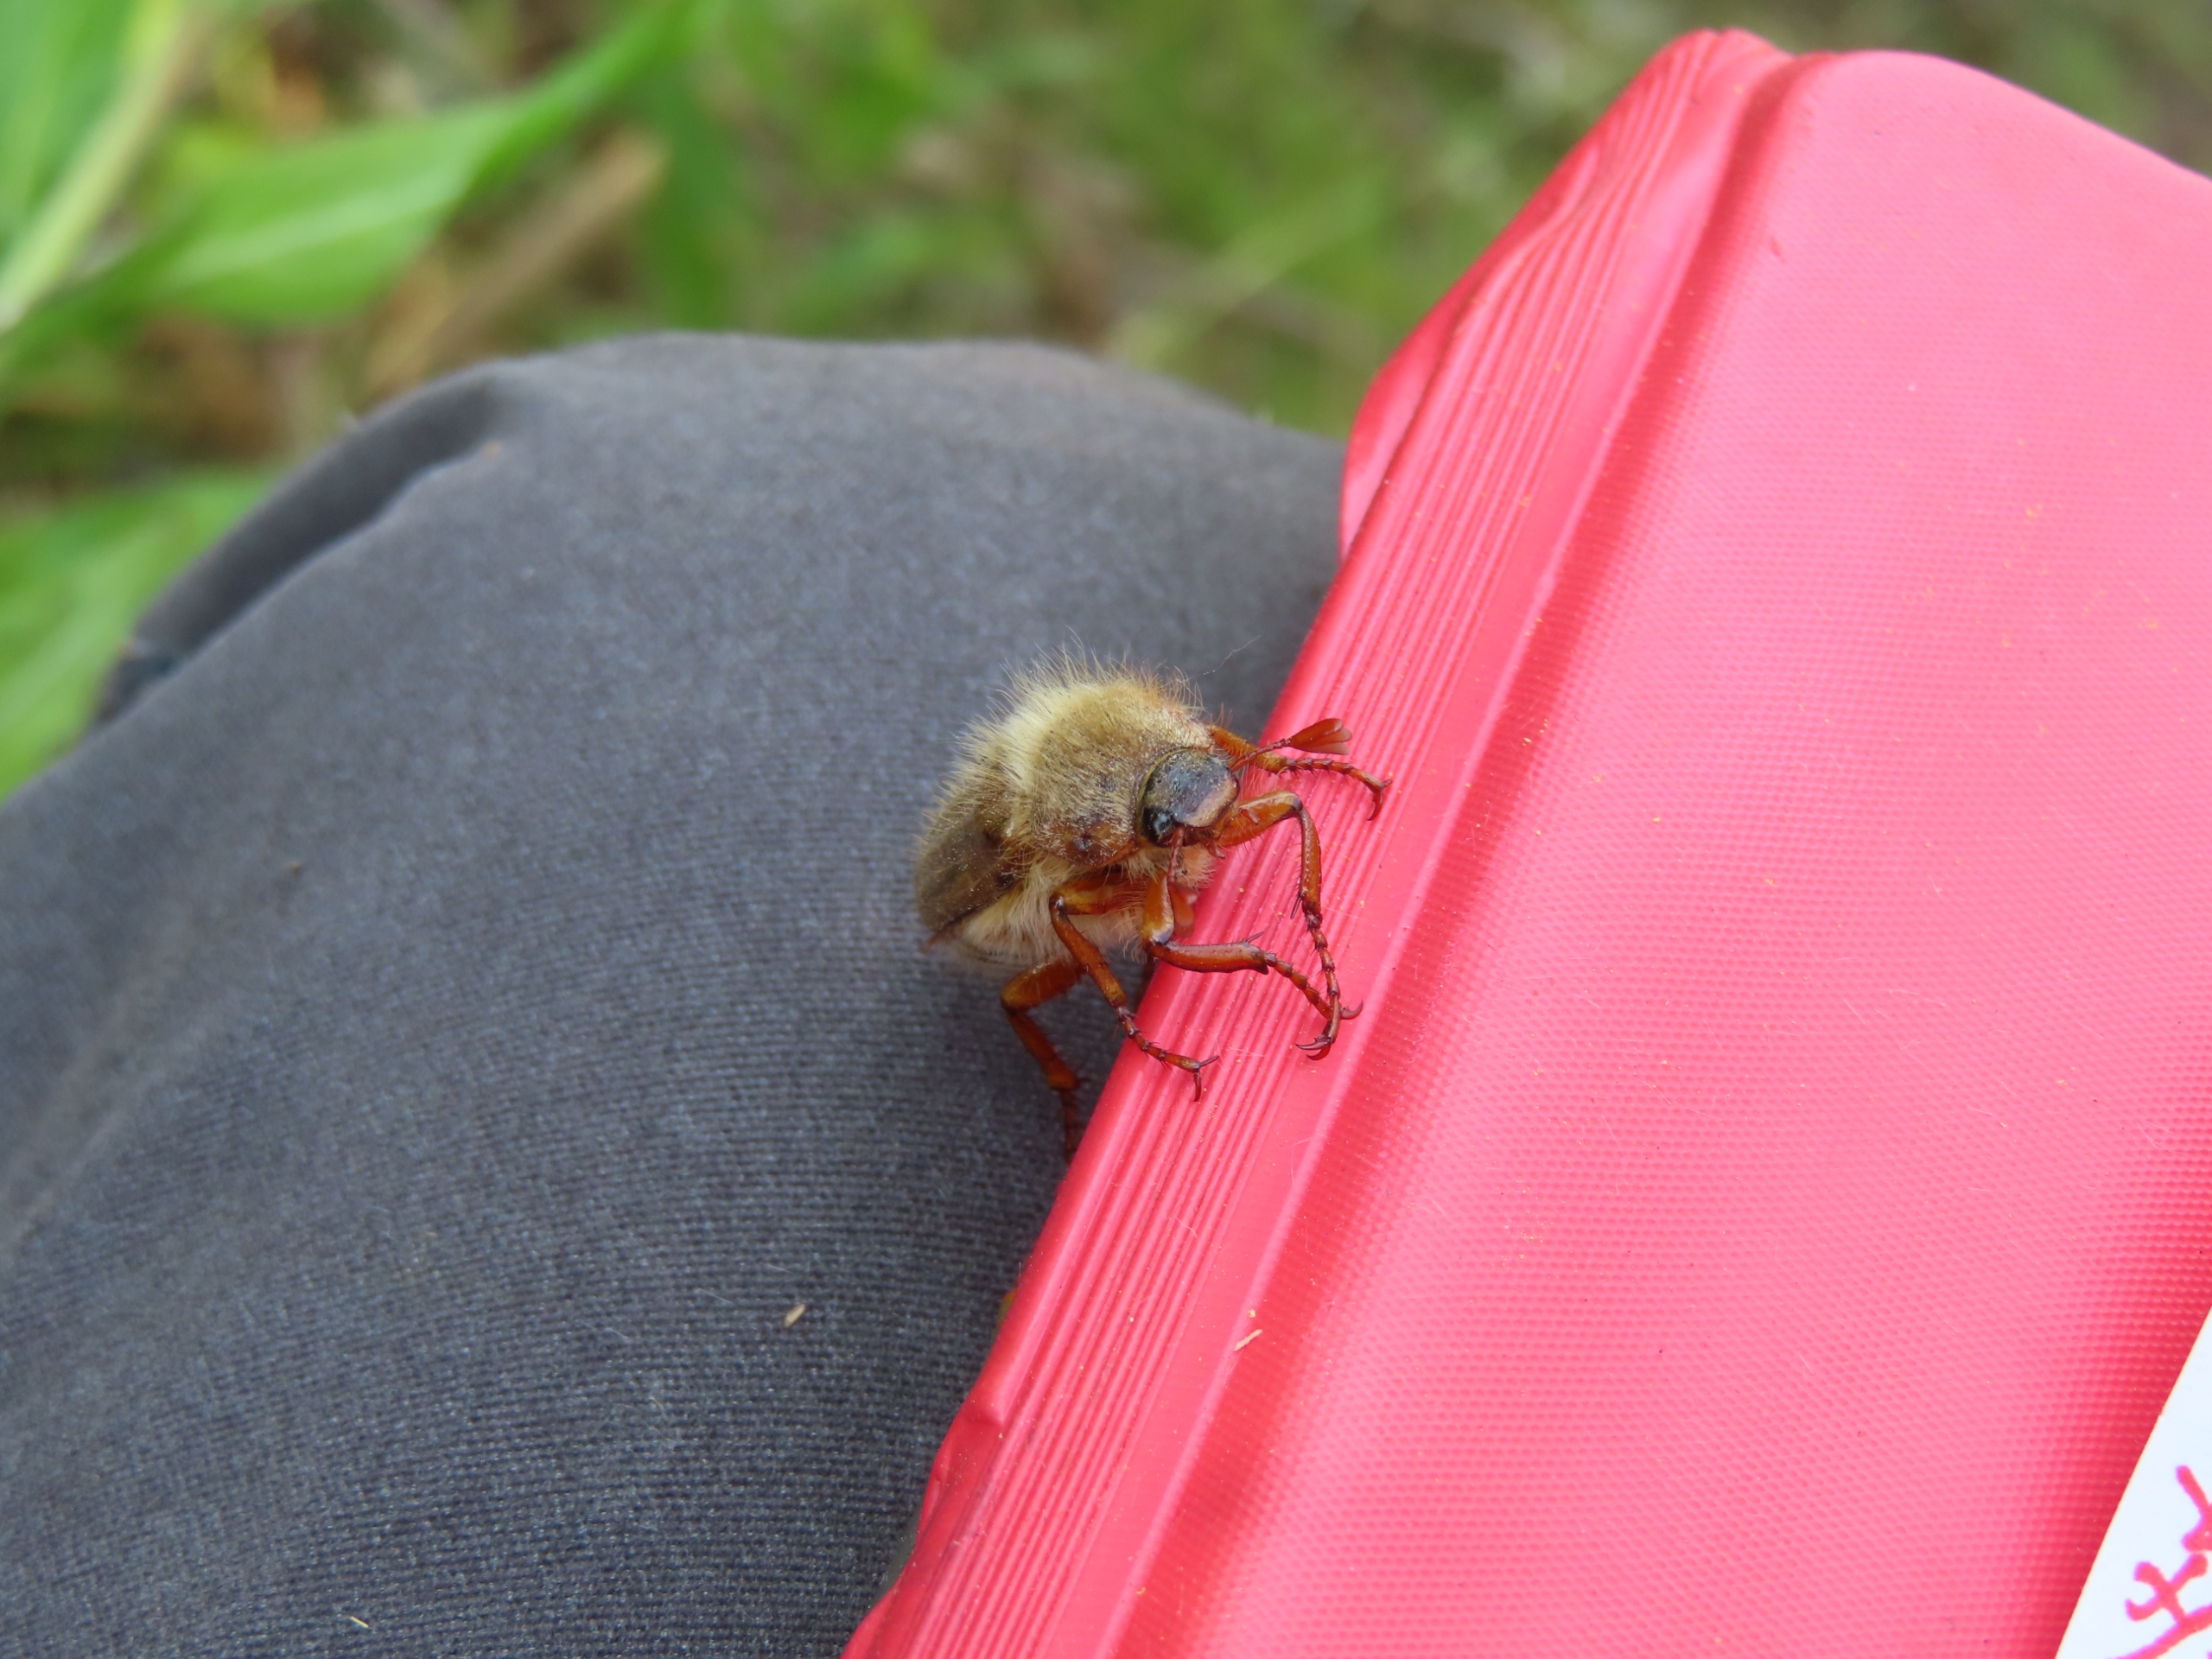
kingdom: Animalia
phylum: Arthropoda
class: Insecta
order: Coleoptera
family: Scarabaeidae
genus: Amphimallon
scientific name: Amphimallon solstitiale
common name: Sankthansoldenborre
